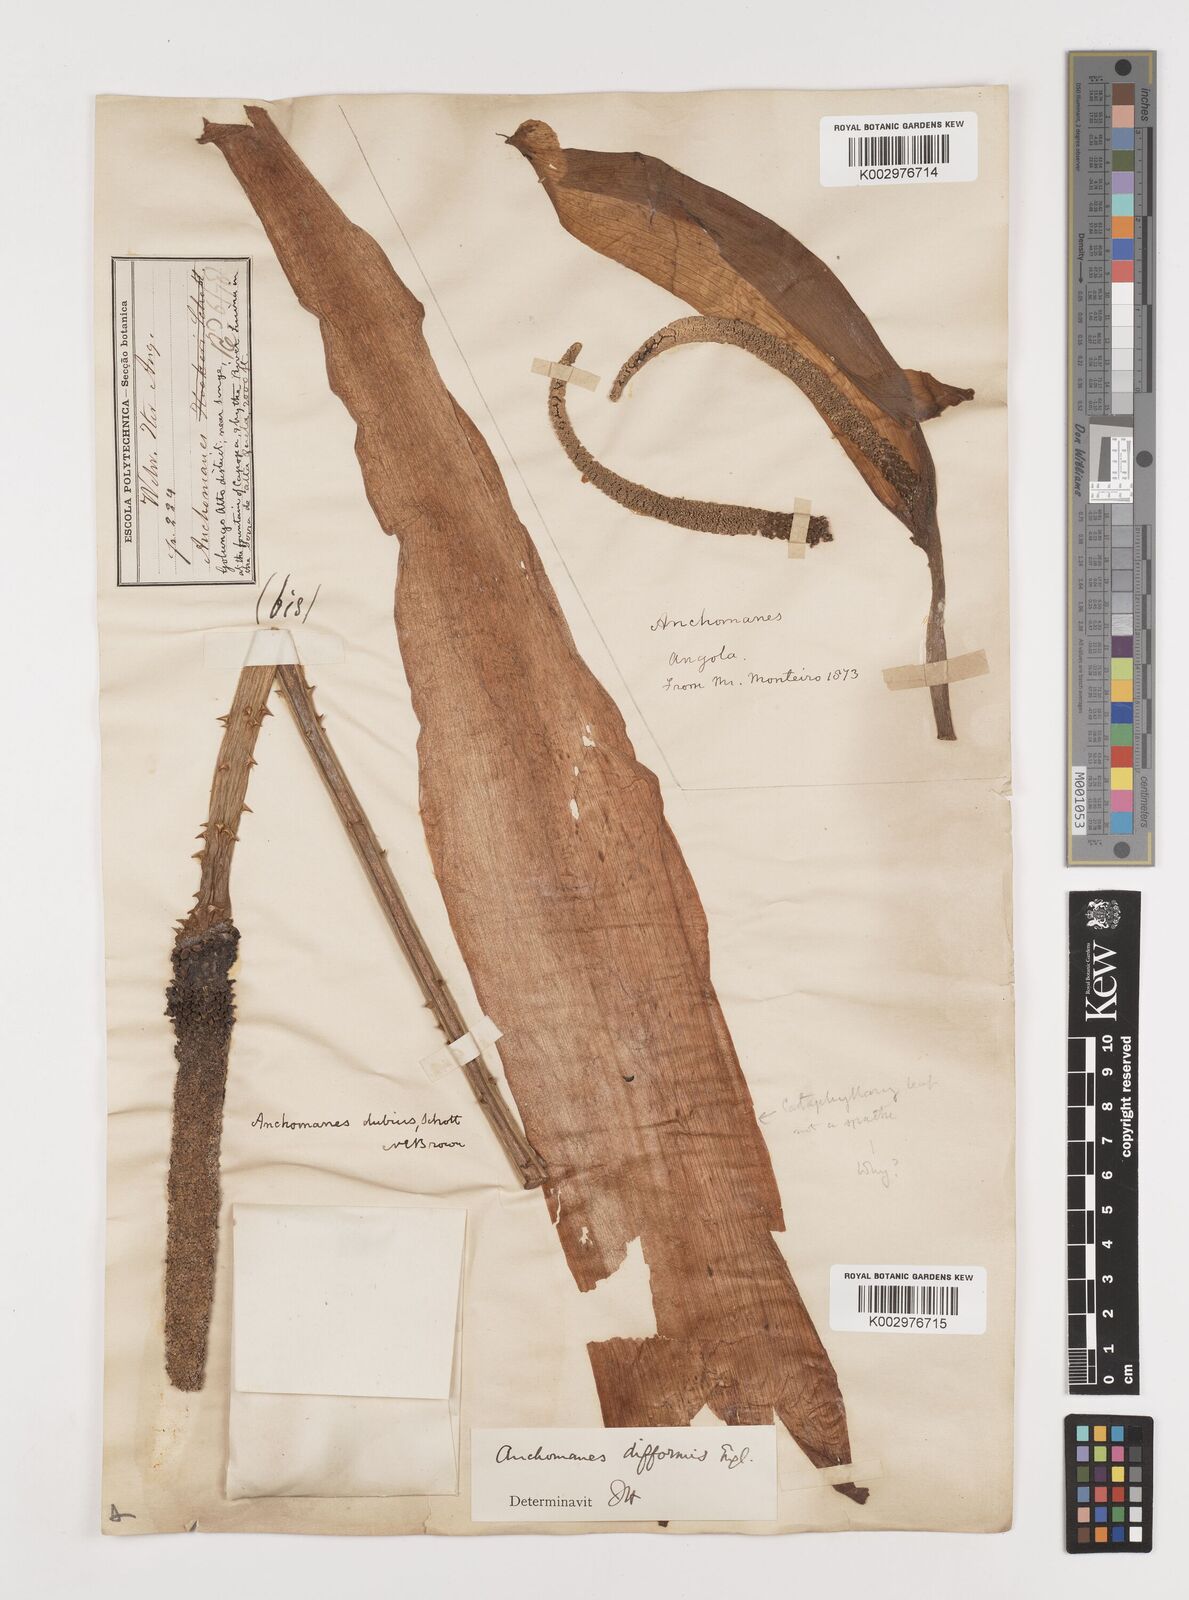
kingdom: Plantae
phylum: Tracheophyta
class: Liliopsida
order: Alismatales
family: Araceae
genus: Anchomanes
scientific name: Anchomanes difformis
